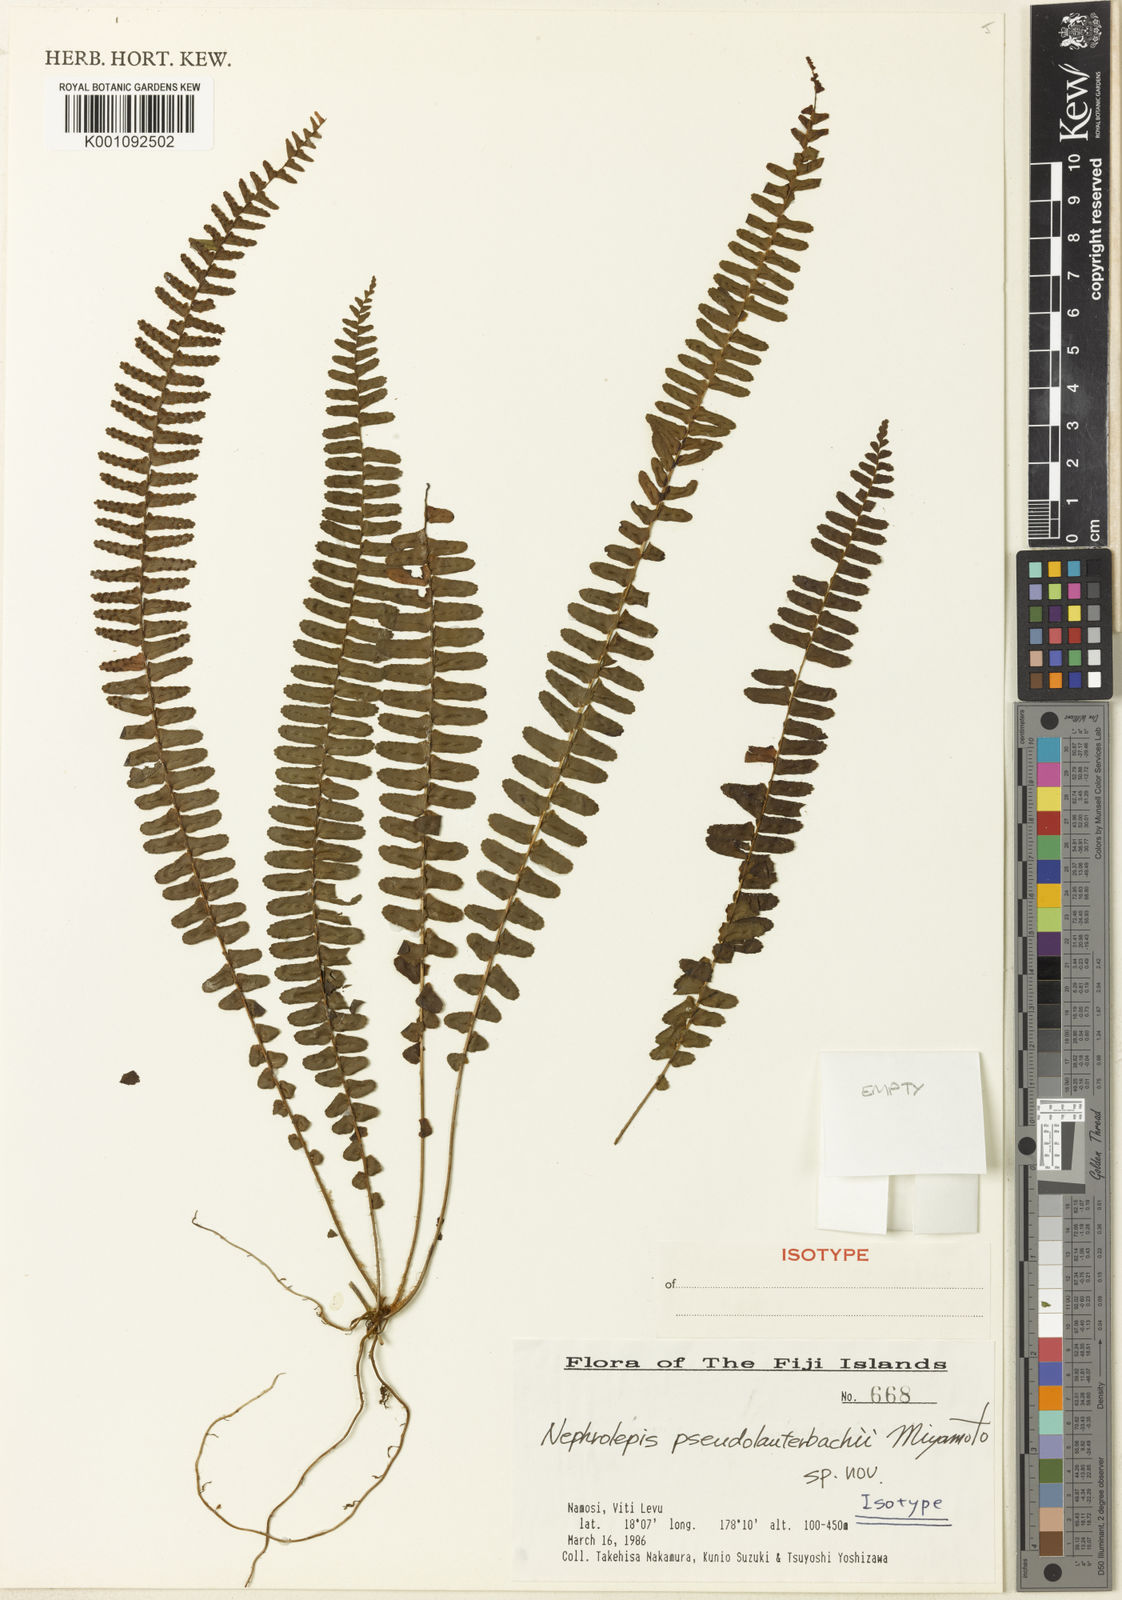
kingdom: Plantae
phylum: Tracheophyta
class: Polypodiopsida
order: Polypodiales
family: Nephrolepidaceae
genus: Nephrolepis
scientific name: Nephrolepis
